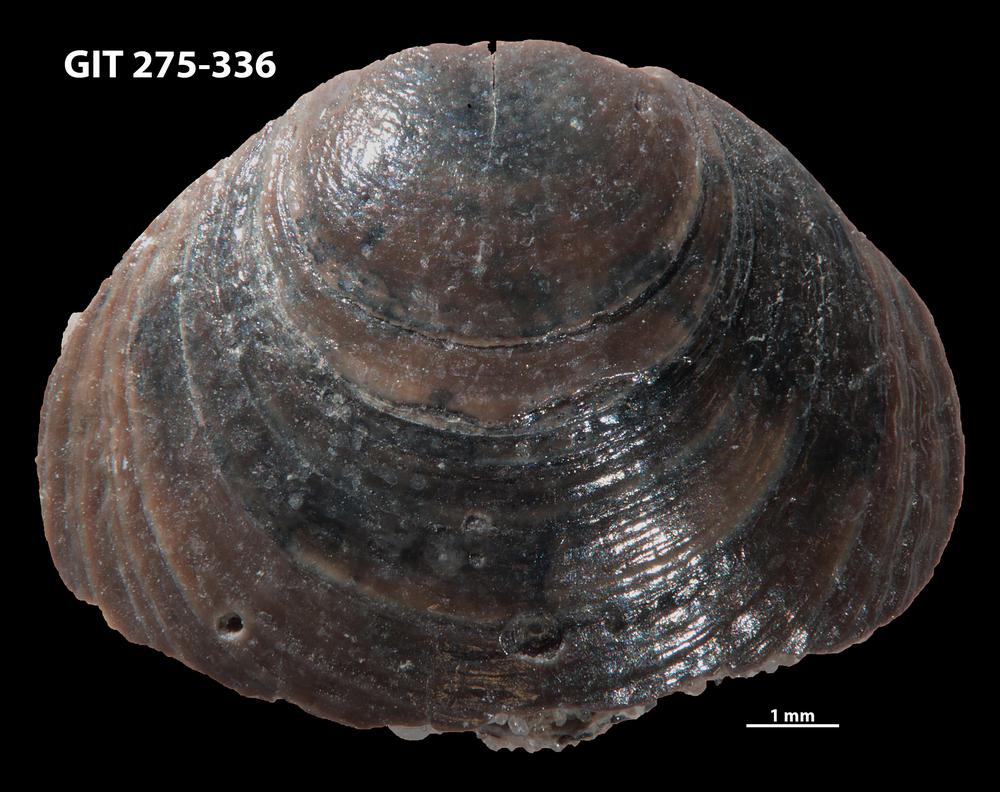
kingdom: Animalia
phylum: Brachiopoda
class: Lingulata
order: Lingulida
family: Obolidae
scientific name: Obolidae
